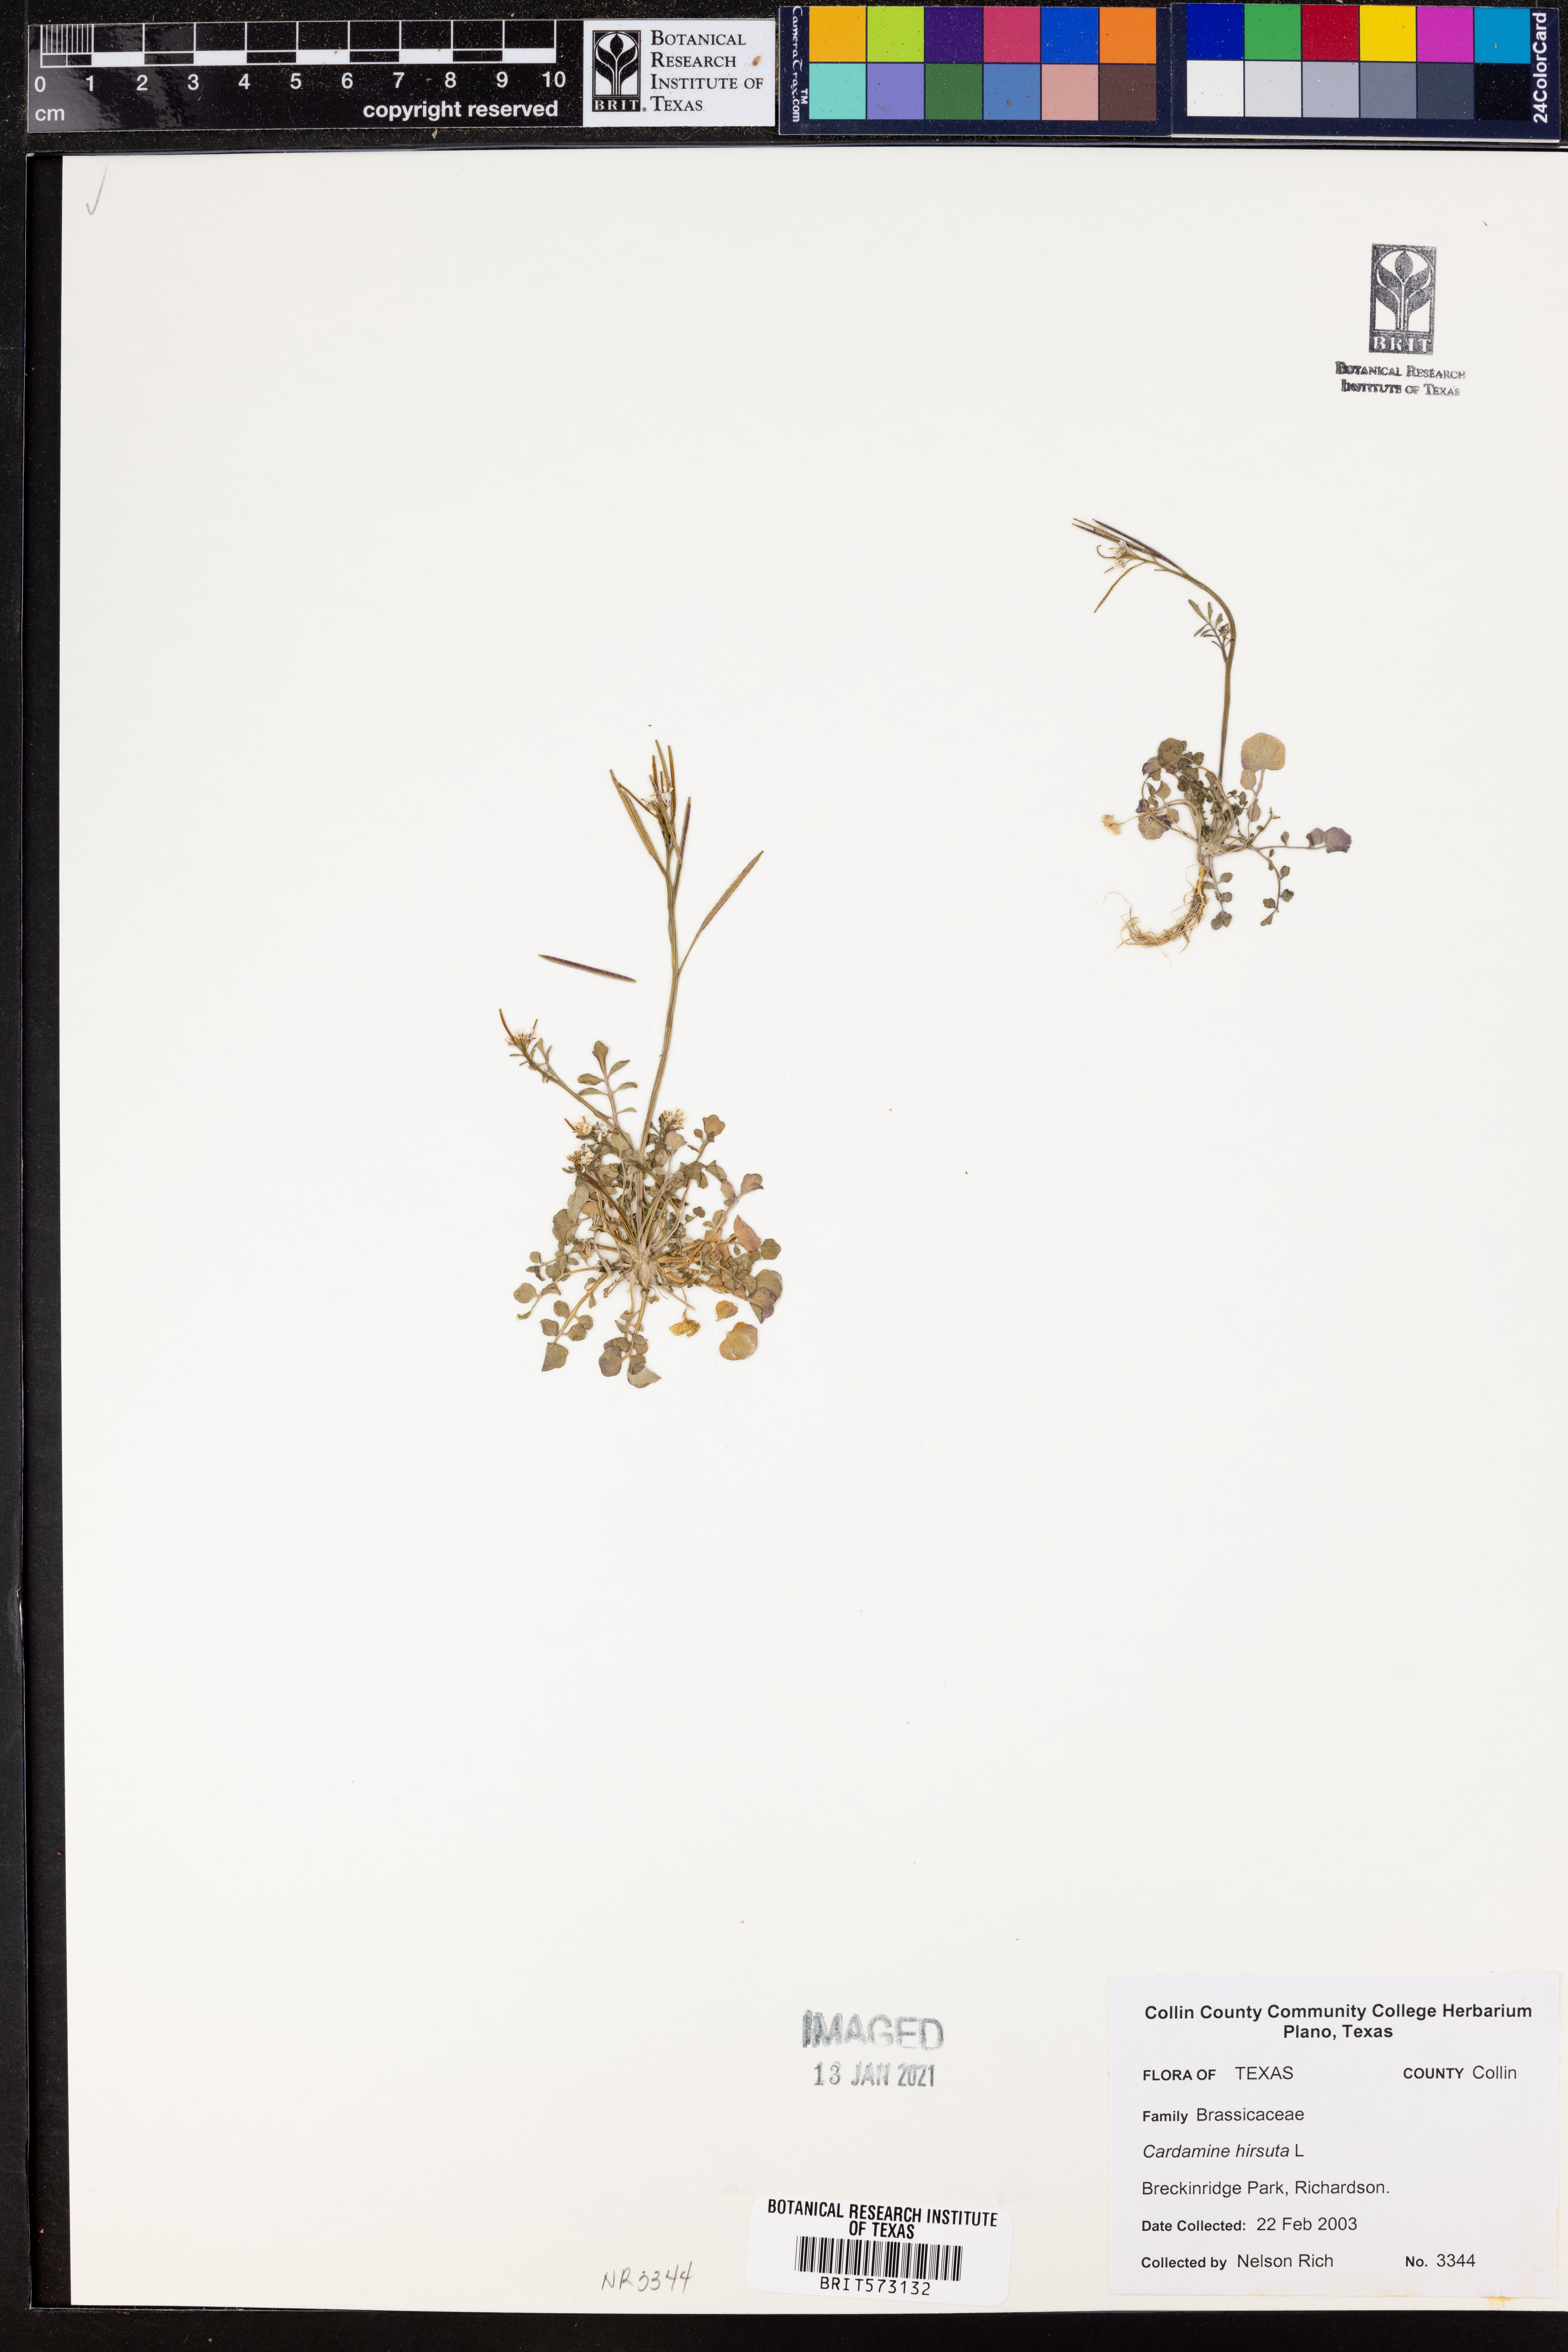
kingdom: Plantae
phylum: Tracheophyta
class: Magnoliopsida
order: Brassicales
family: Brassicaceae
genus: Cardamine
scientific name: Cardamine hirsuta
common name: Hairy bittercress
